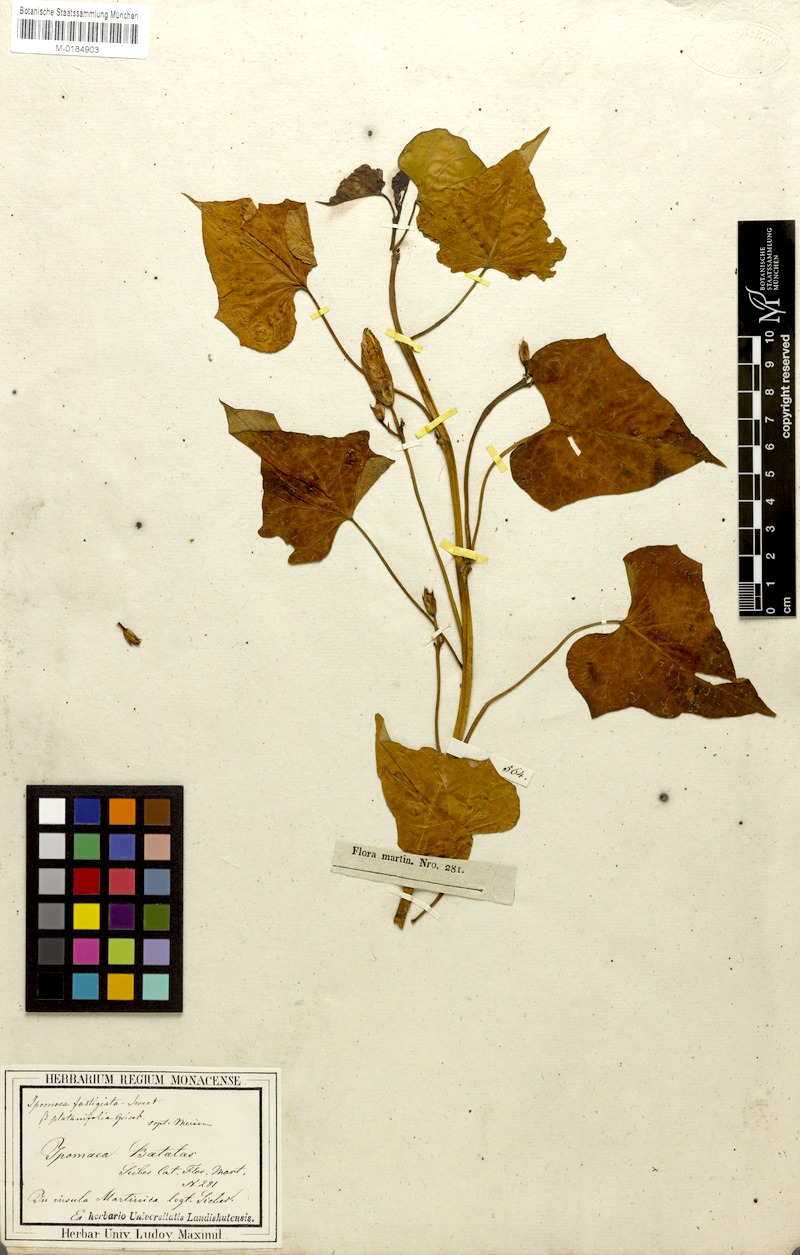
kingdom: Plantae
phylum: Tracheophyta
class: Magnoliopsida
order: Solanales
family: Convolvulaceae
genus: Ipomoea
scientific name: Ipomoea batatas
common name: Sweet-potato
